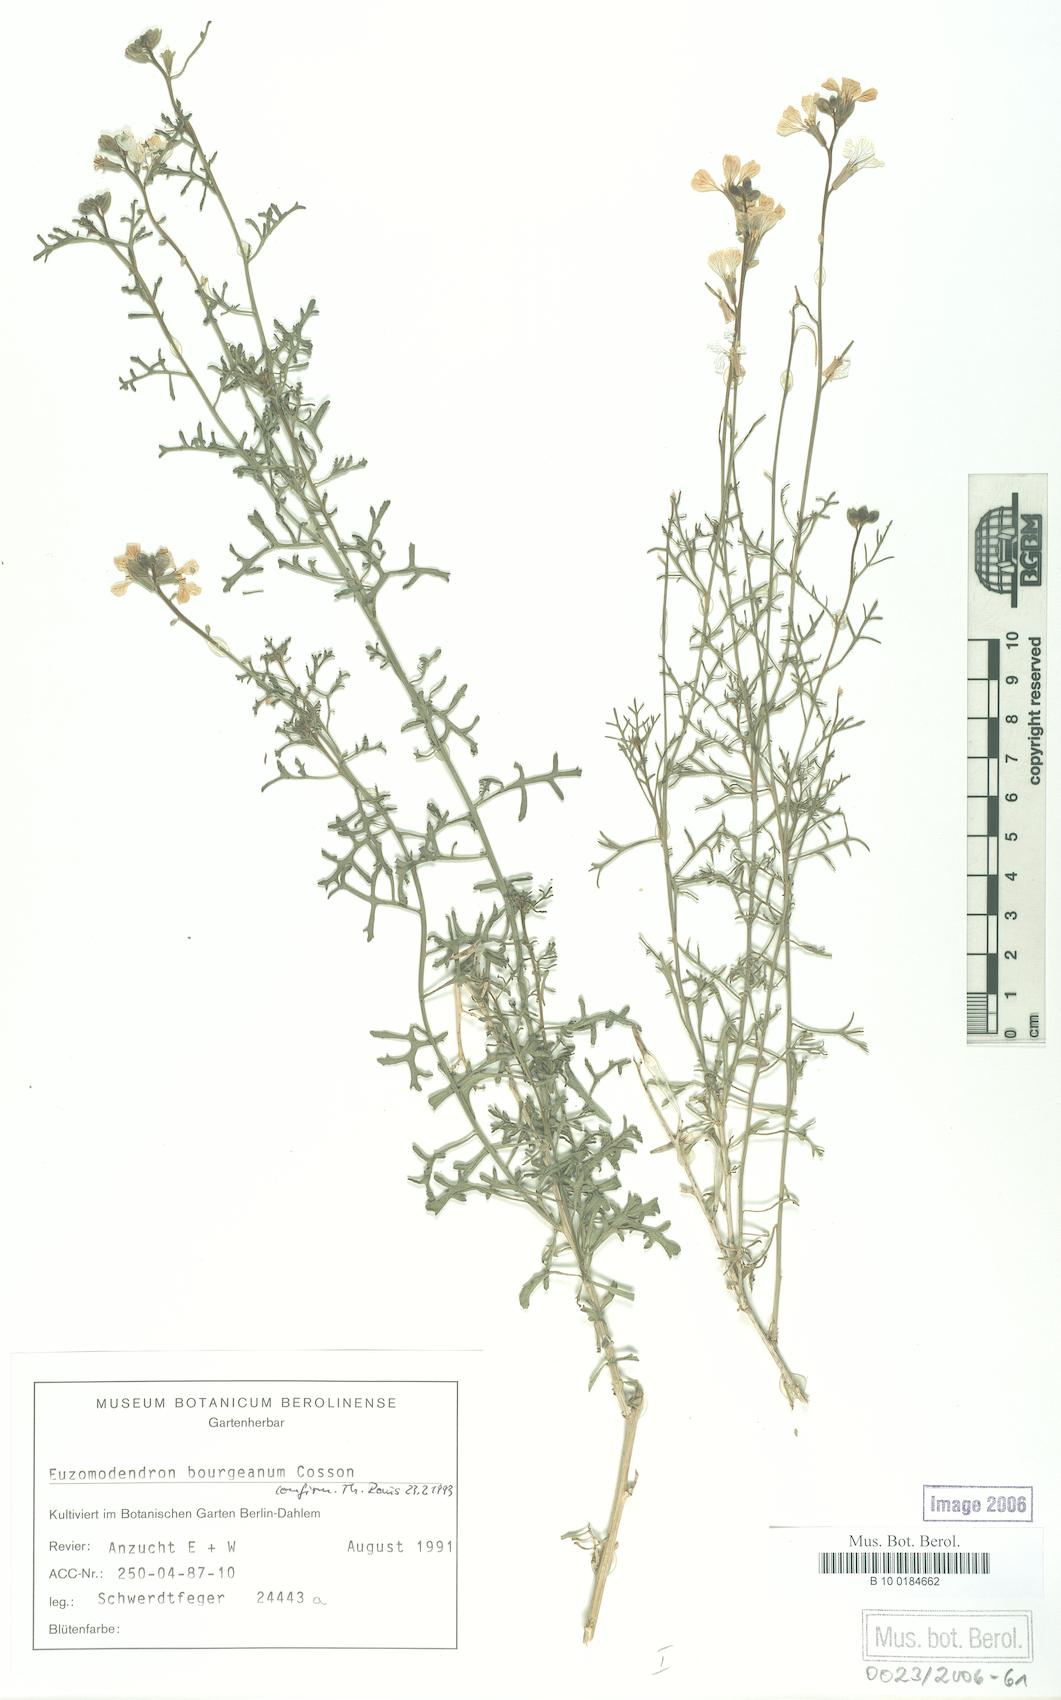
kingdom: Plantae
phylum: Tracheophyta
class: Magnoliopsida
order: Brassicales
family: Brassicaceae
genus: Vella
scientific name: Vella bourgaeana
